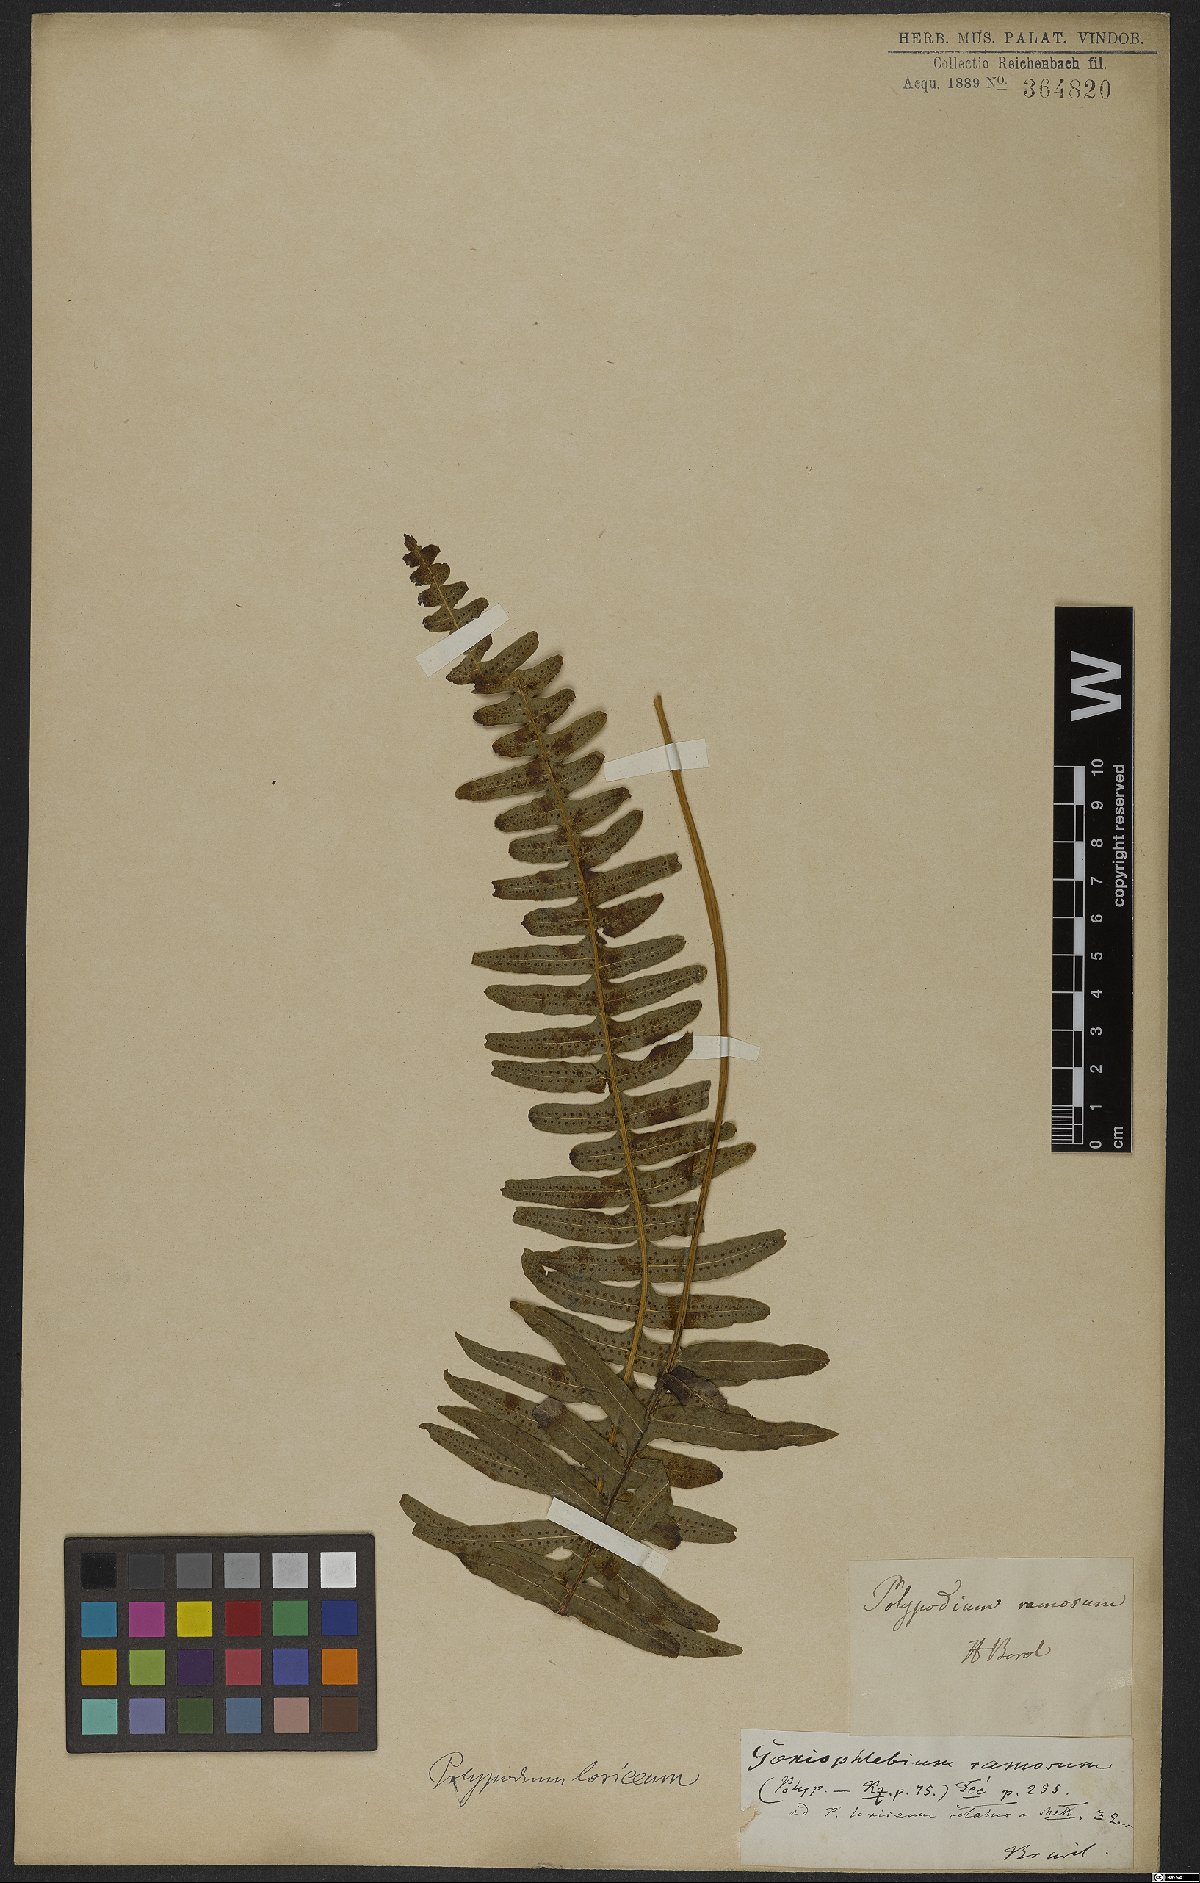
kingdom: Plantae
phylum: Tracheophyta
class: Polypodiopsida
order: Polypodiales
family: Polypodiaceae
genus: Serpocaulon
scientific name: Serpocaulon loriceum
